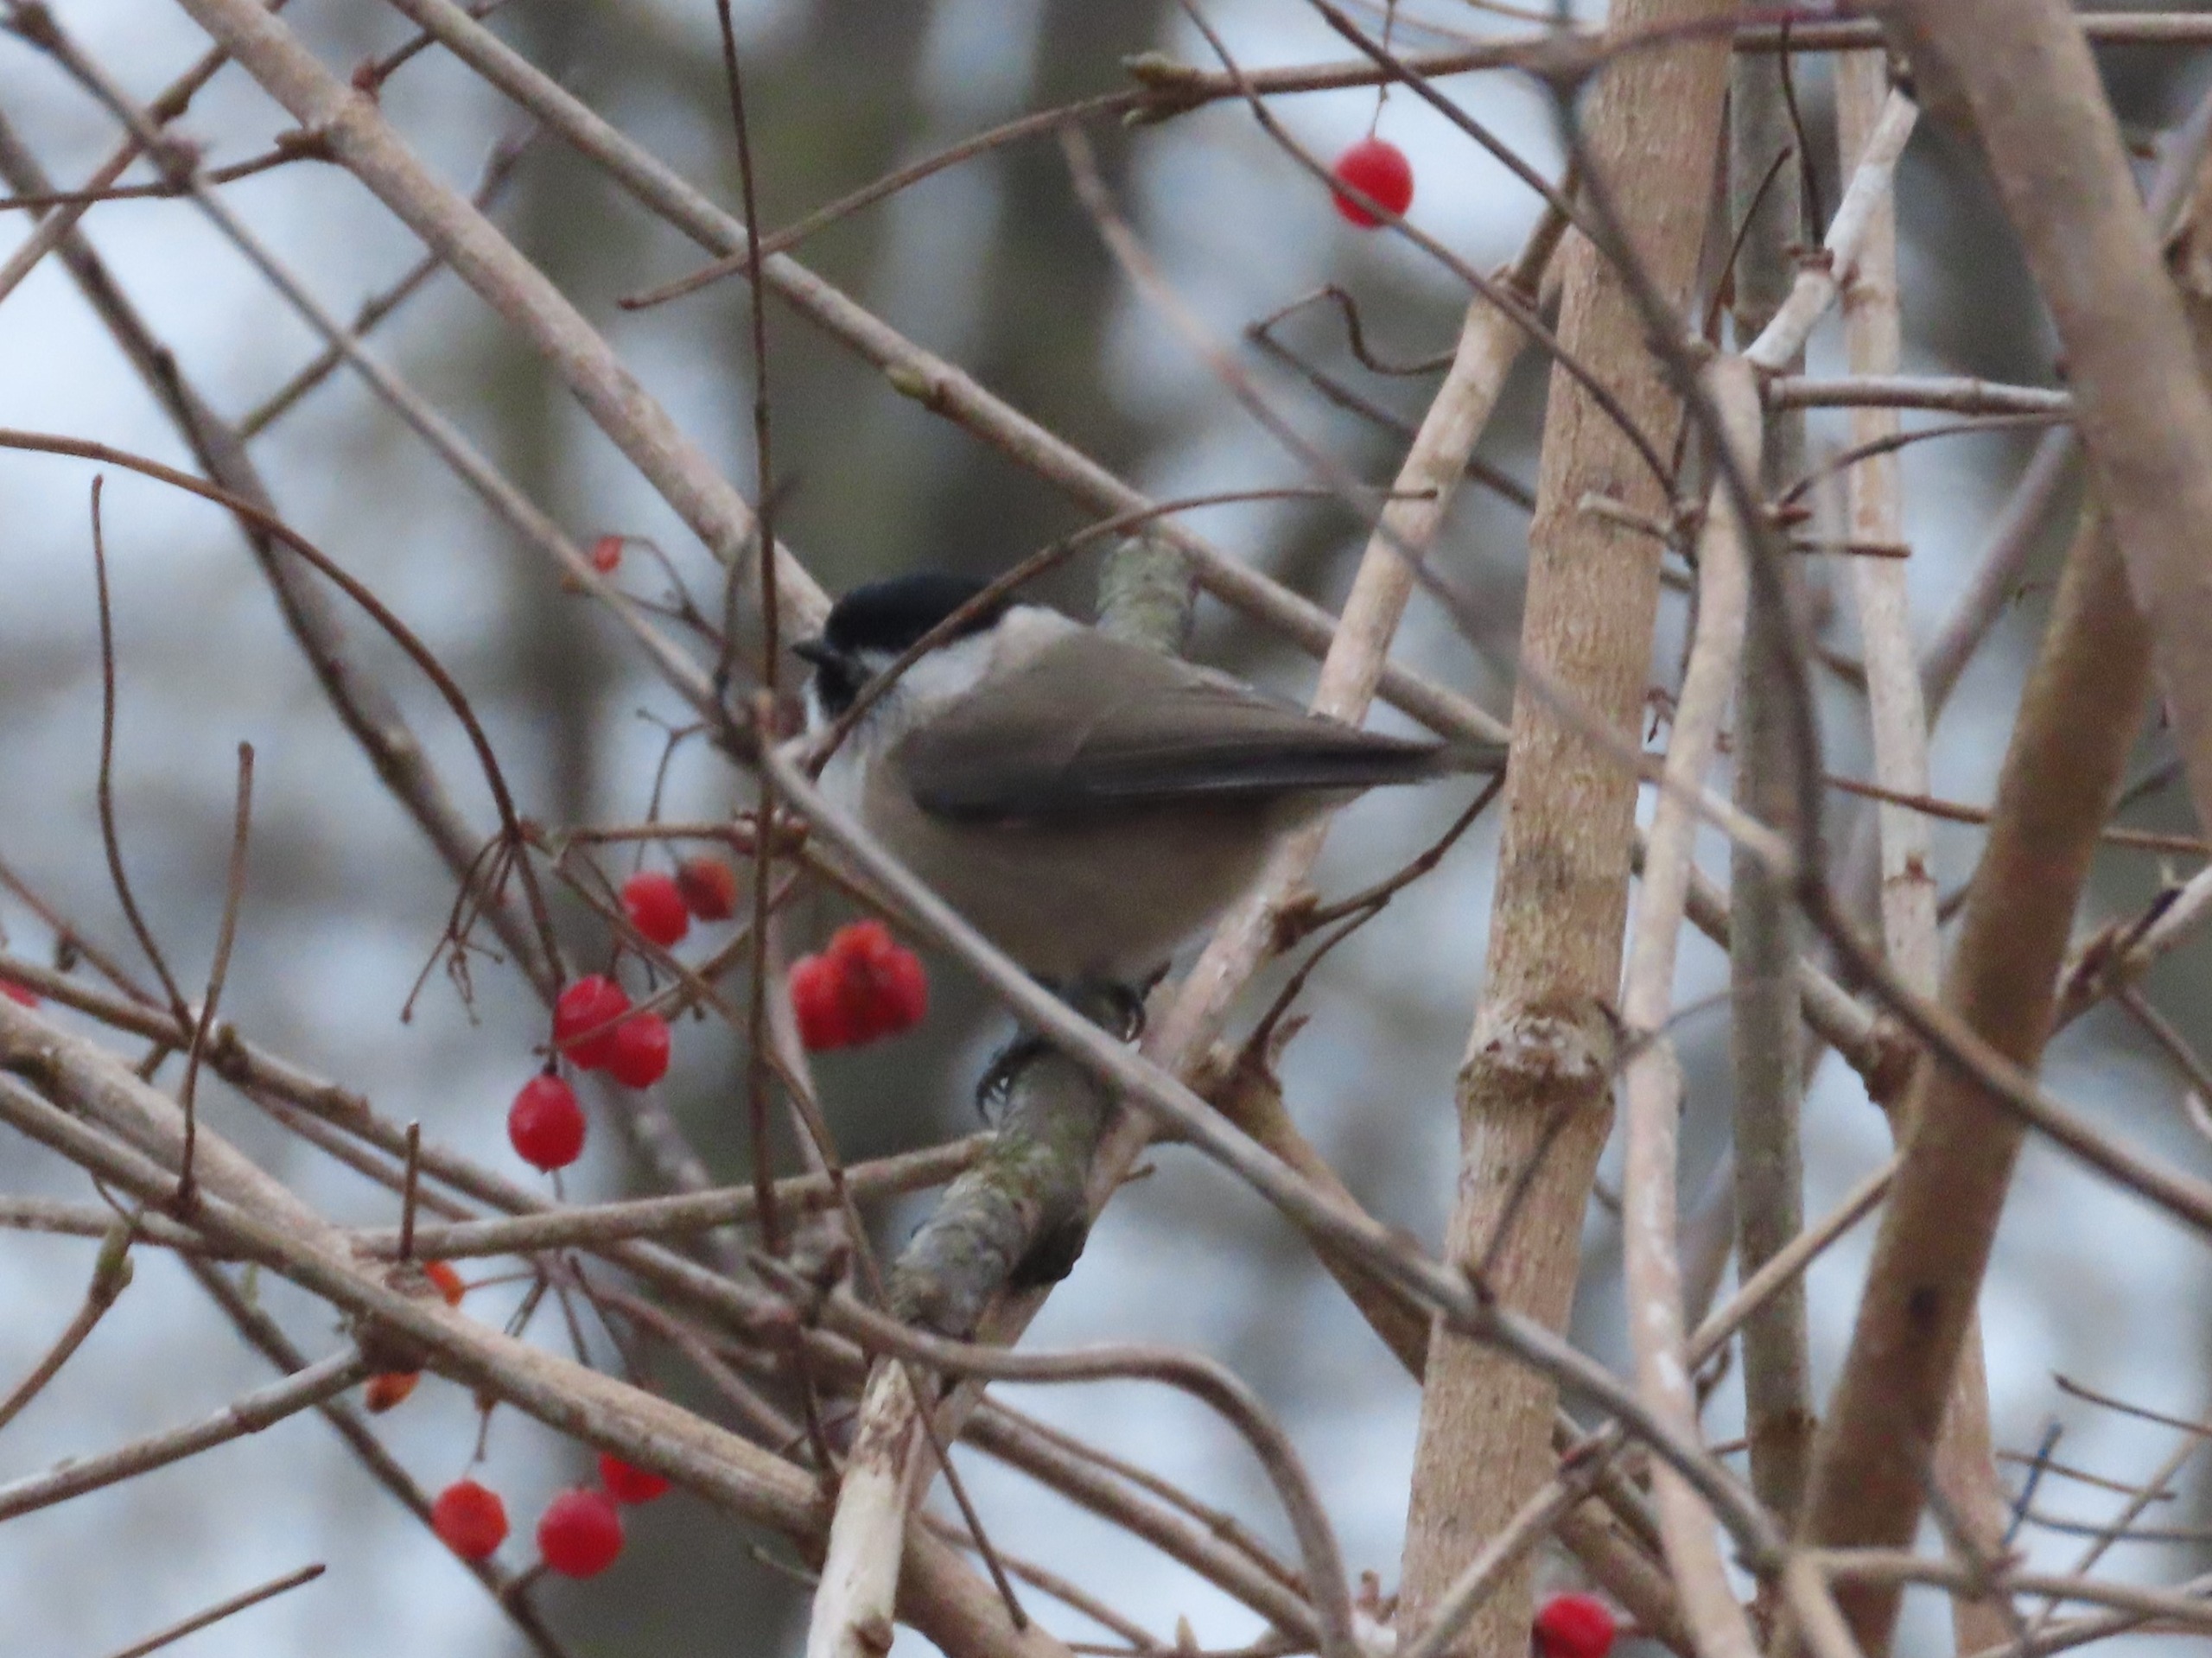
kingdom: Animalia
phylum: Chordata
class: Aves
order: Passeriformes
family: Paridae
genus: Poecile
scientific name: Poecile palustris
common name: Sumpmejse
